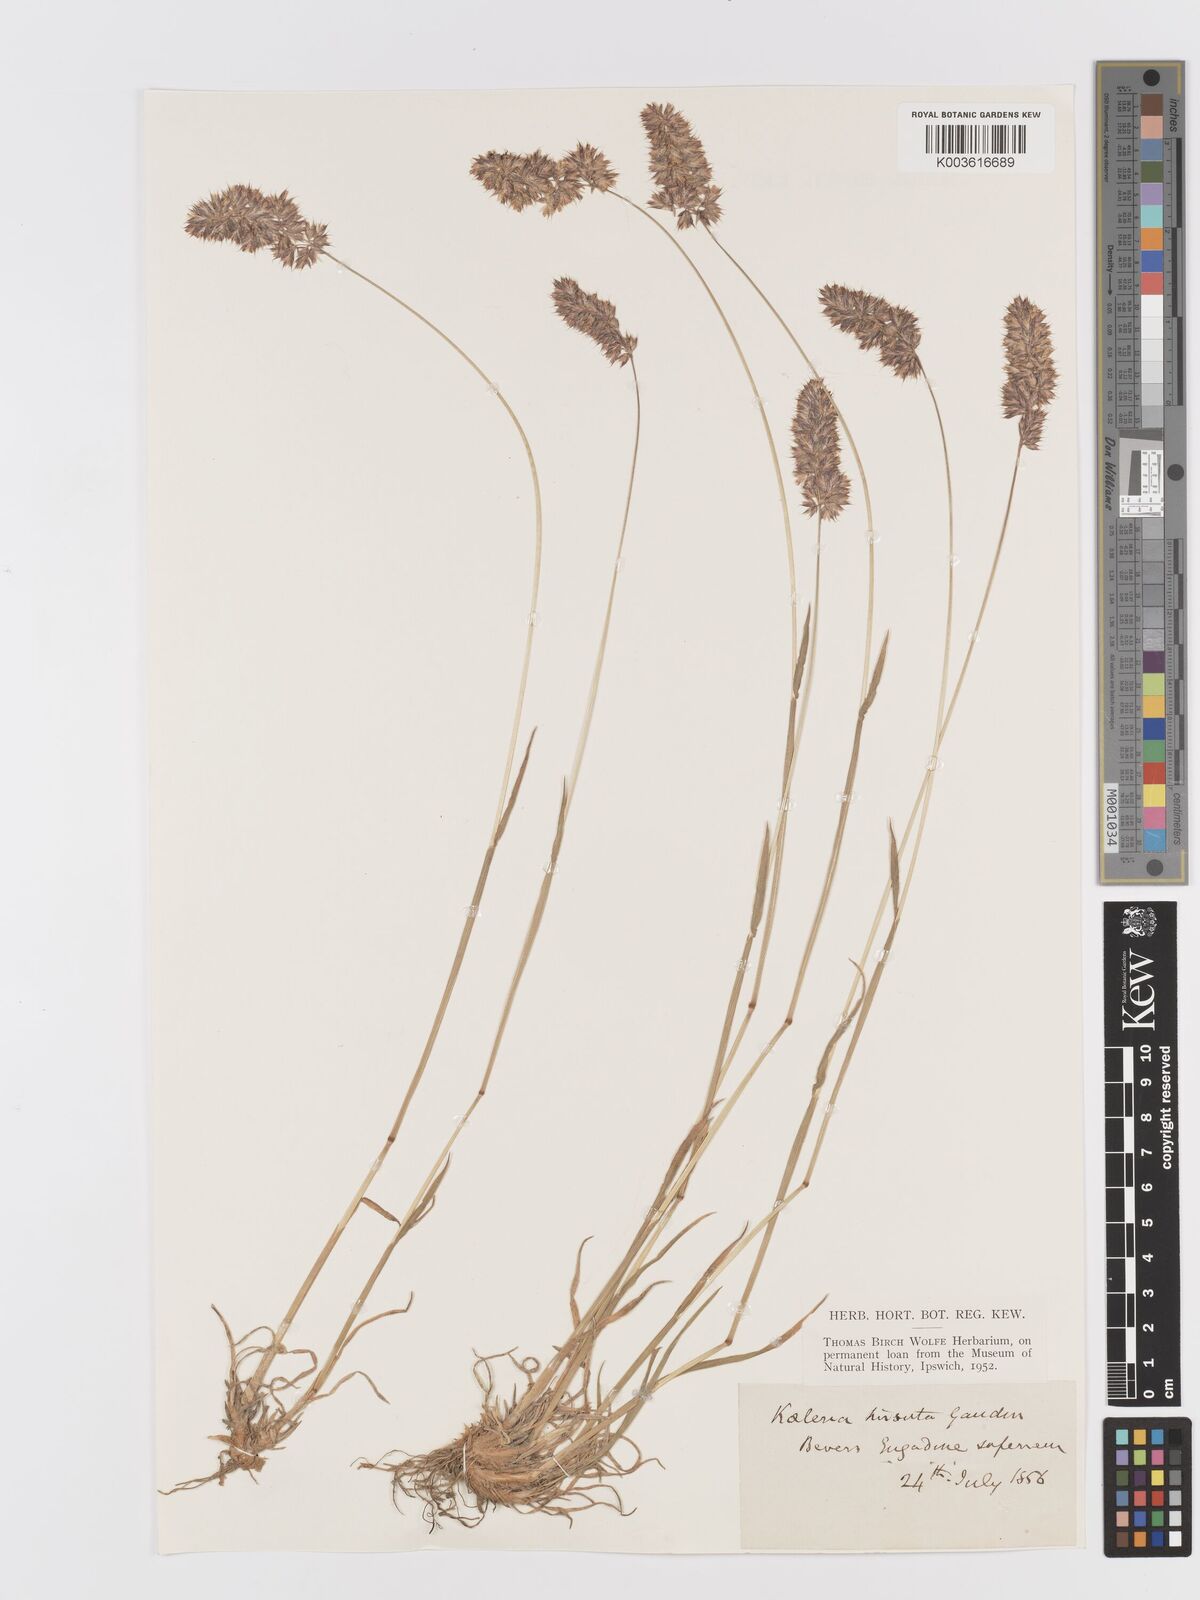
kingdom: Plantae
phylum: Tracheophyta
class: Liliopsida
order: Poales
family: Poaceae
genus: Koeleria
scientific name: Koeleria hirsuta
